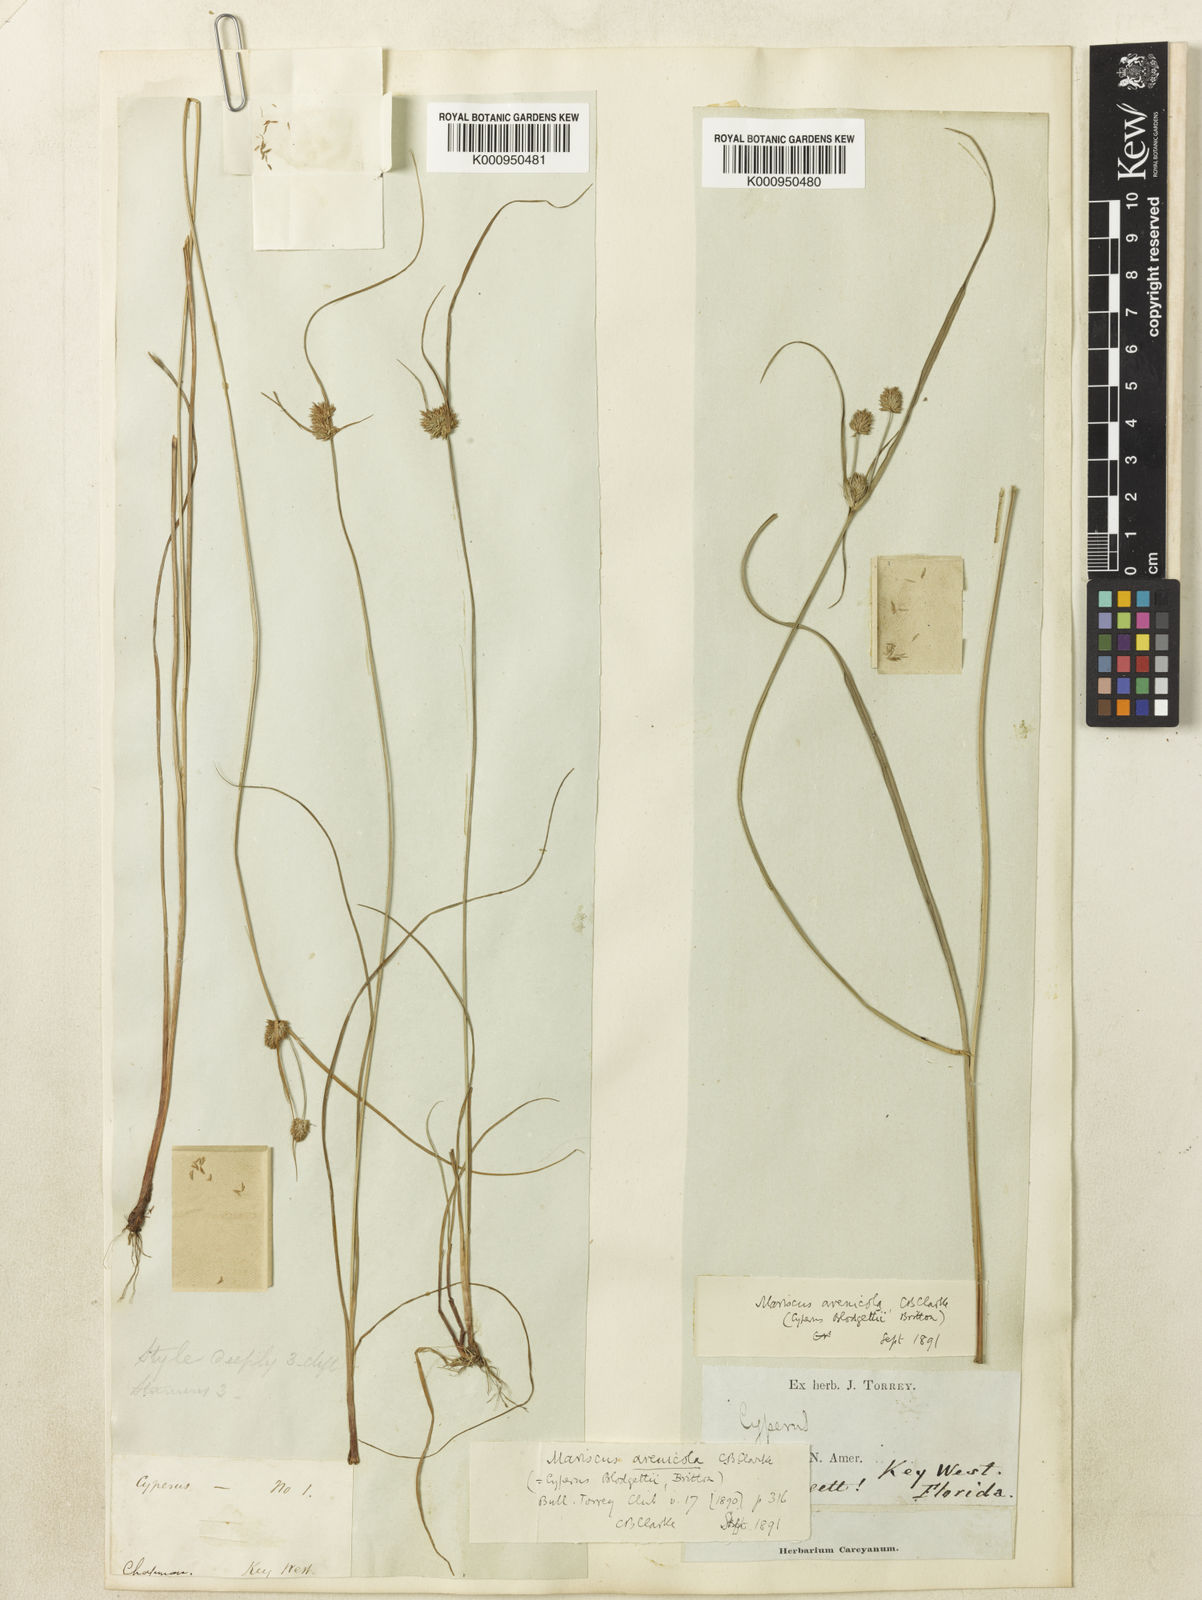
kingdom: Plantae
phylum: Tracheophyta
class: Liliopsida
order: Poales
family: Cyperaceae
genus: Cyperus
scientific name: Cyperus retrorsus
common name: Pinebarren flat sedge
